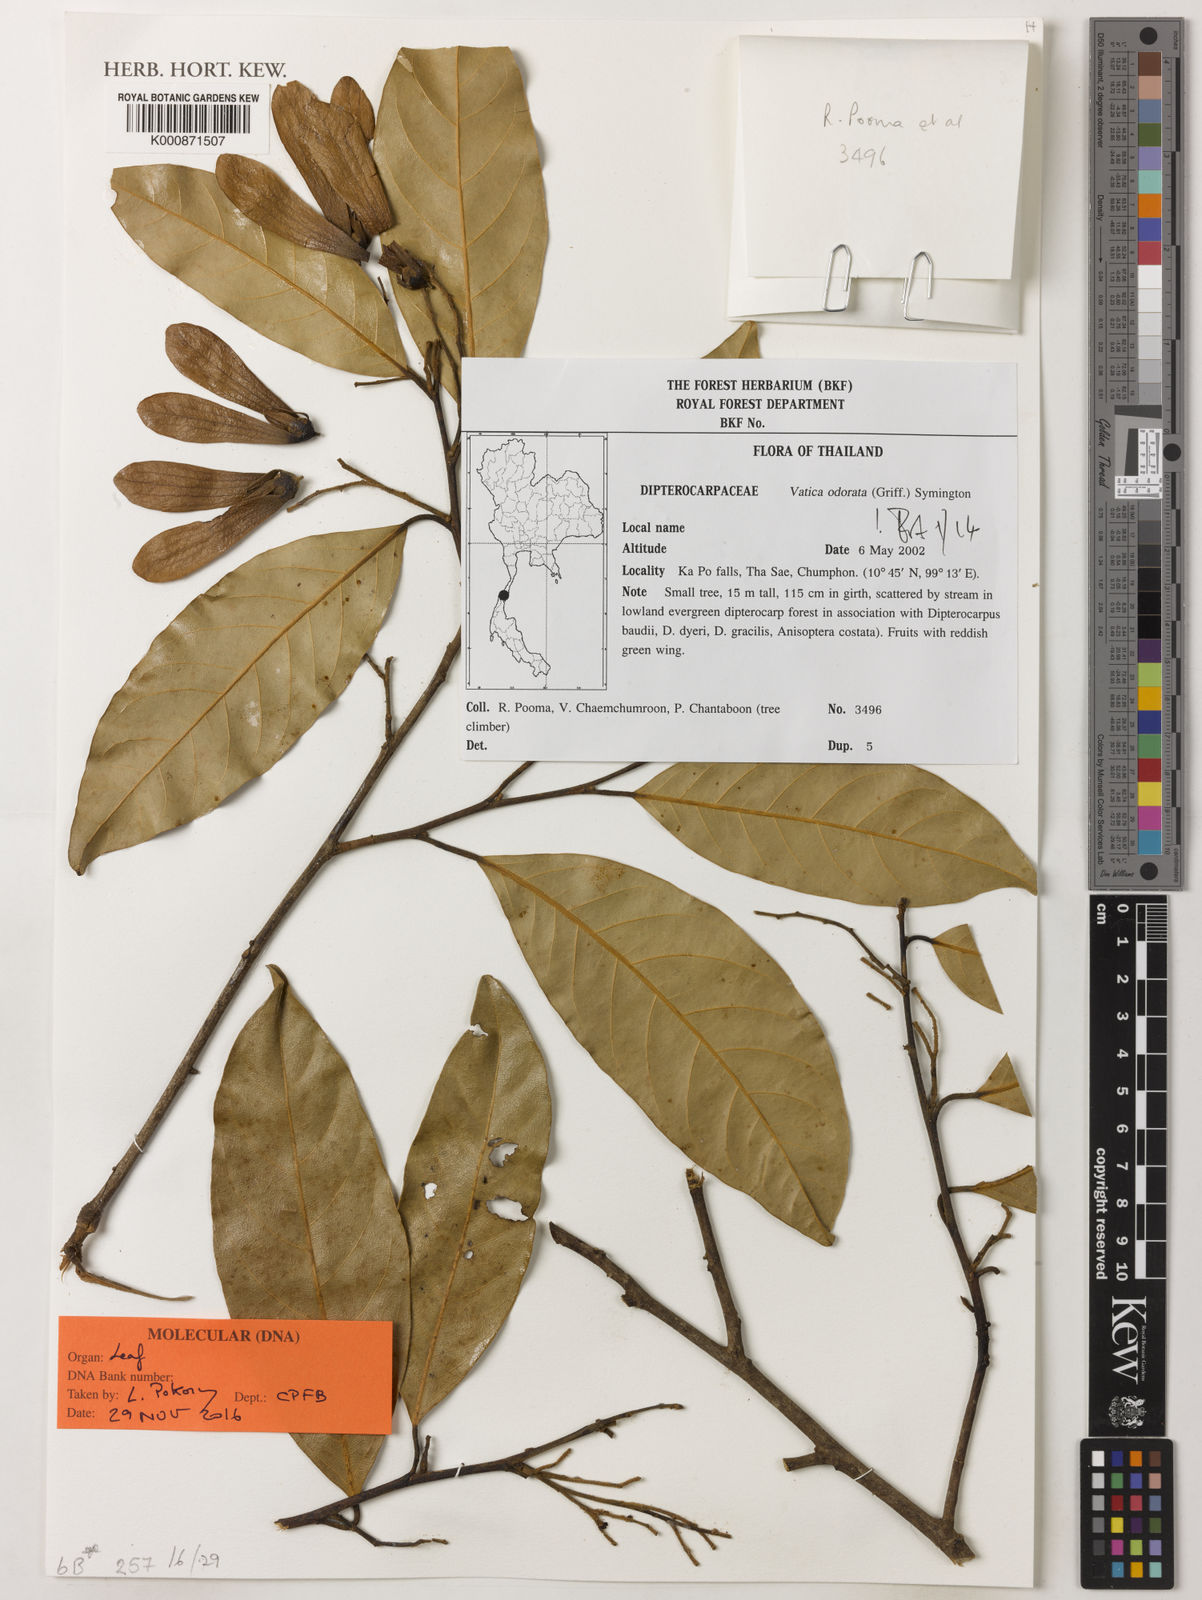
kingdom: Plantae
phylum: Tracheophyta
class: Magnoliopsida
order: Malvales
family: Dipterocarpaceae
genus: Vatica
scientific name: Vatica odorata
